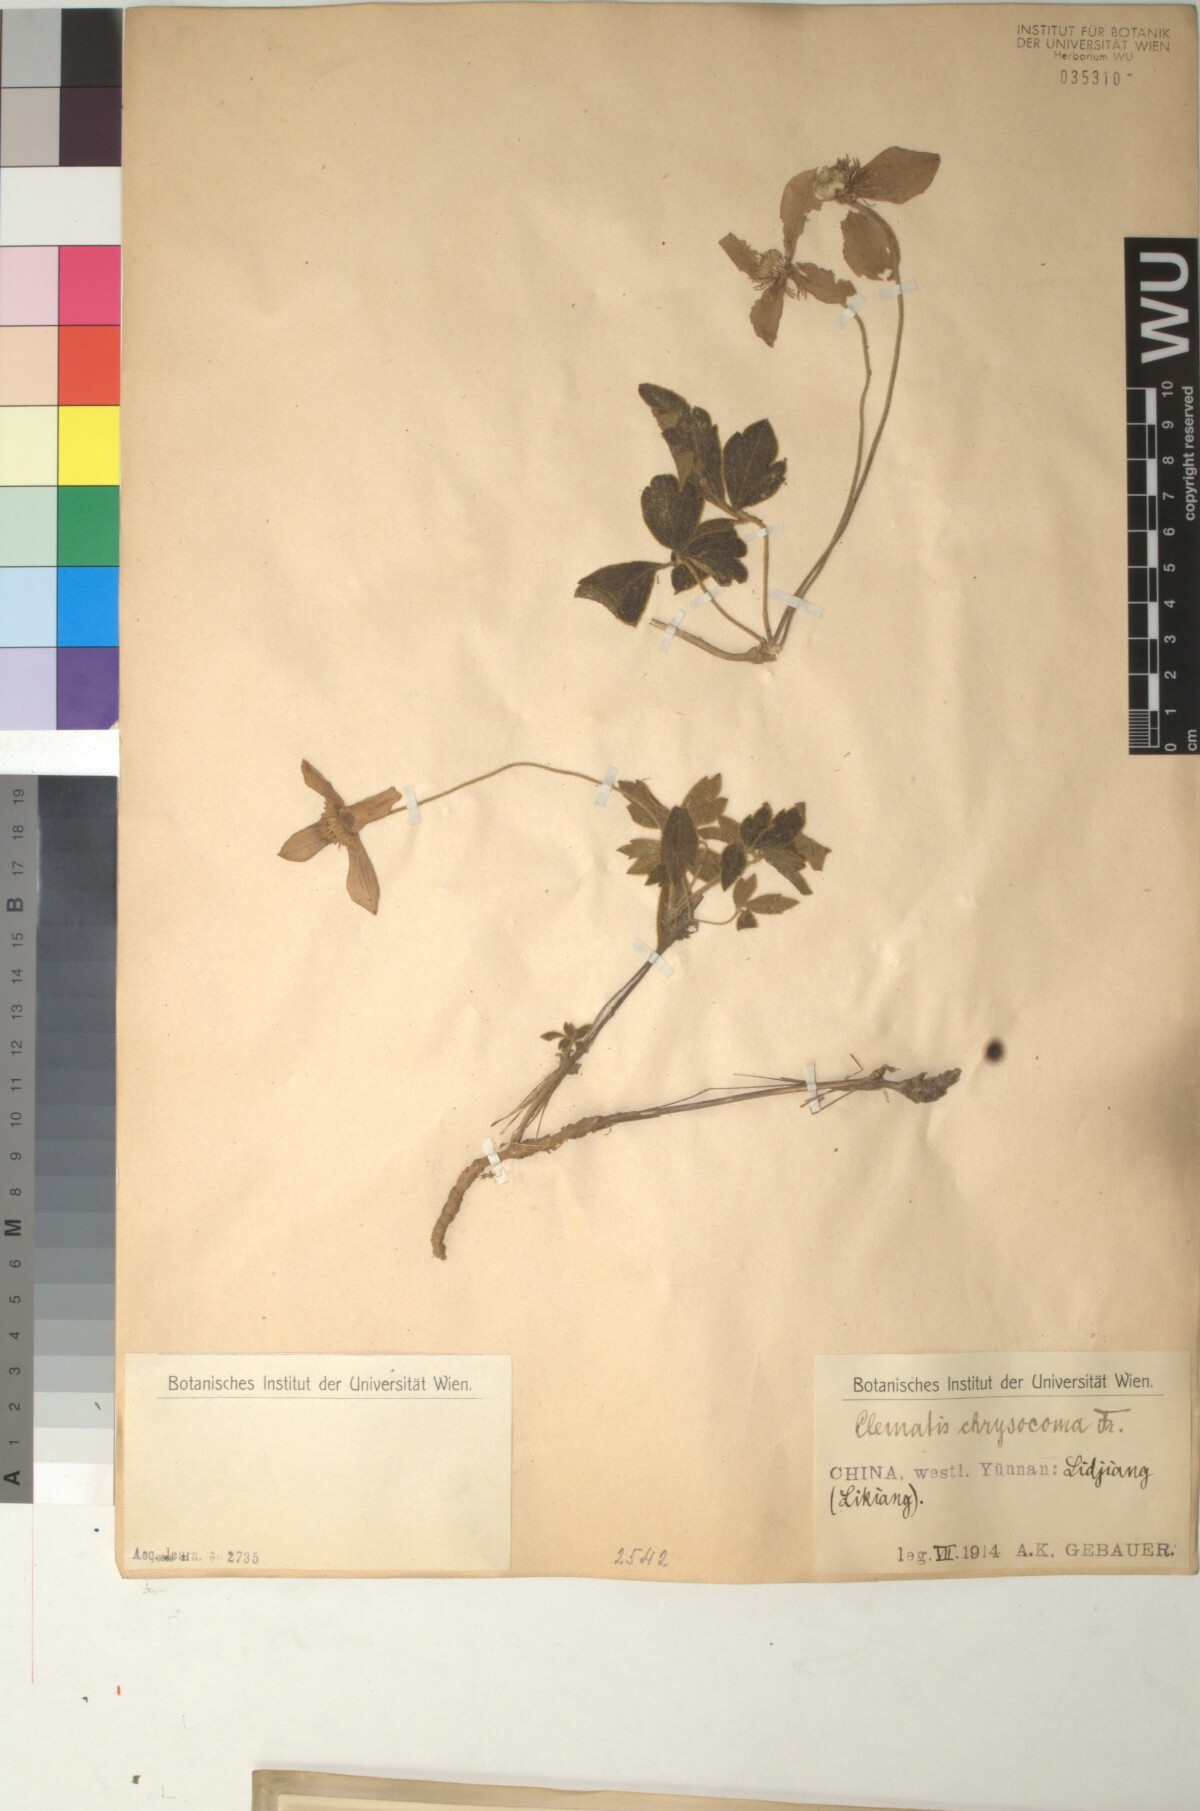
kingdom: Plantae
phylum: Tracheophyta
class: Magnoliopsida
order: Ranunculales
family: Ranunculaceae
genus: Clematis
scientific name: Clematis chrysocoma
